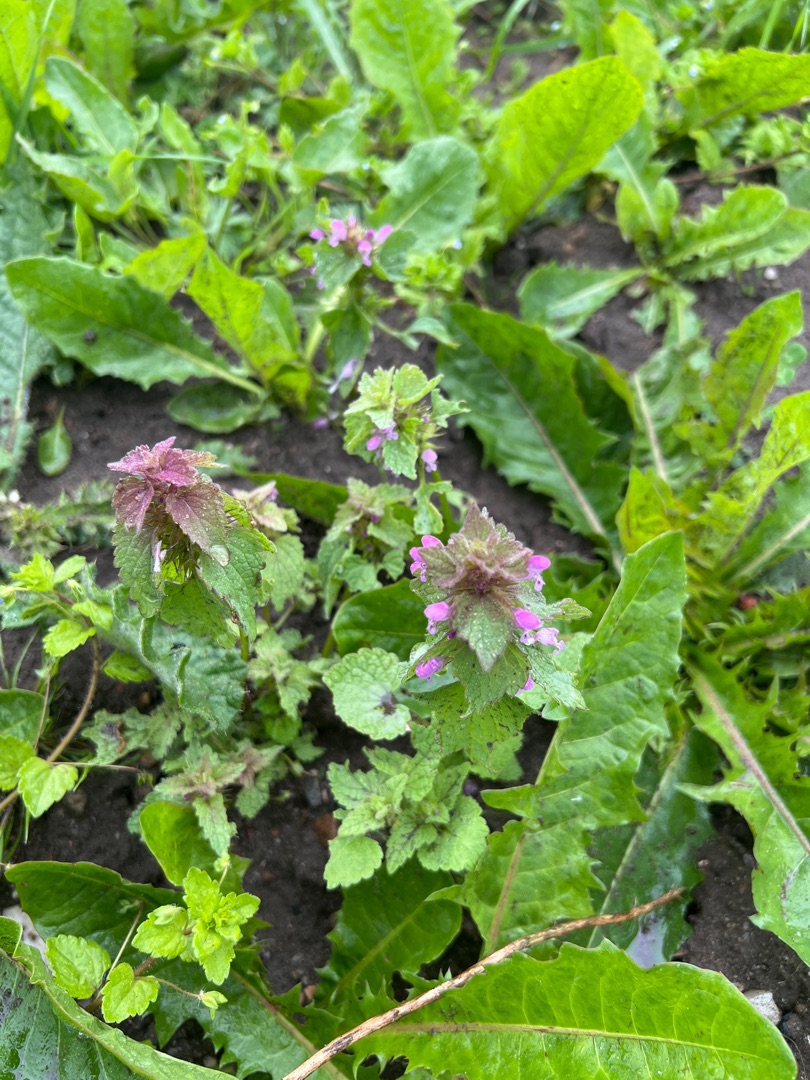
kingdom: Plantae
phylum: Tracheophyta
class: Magnoliopsida
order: Lamiales
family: Lamiaceae
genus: Lamium
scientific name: Lamium purpureum
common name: Rød tvetand
